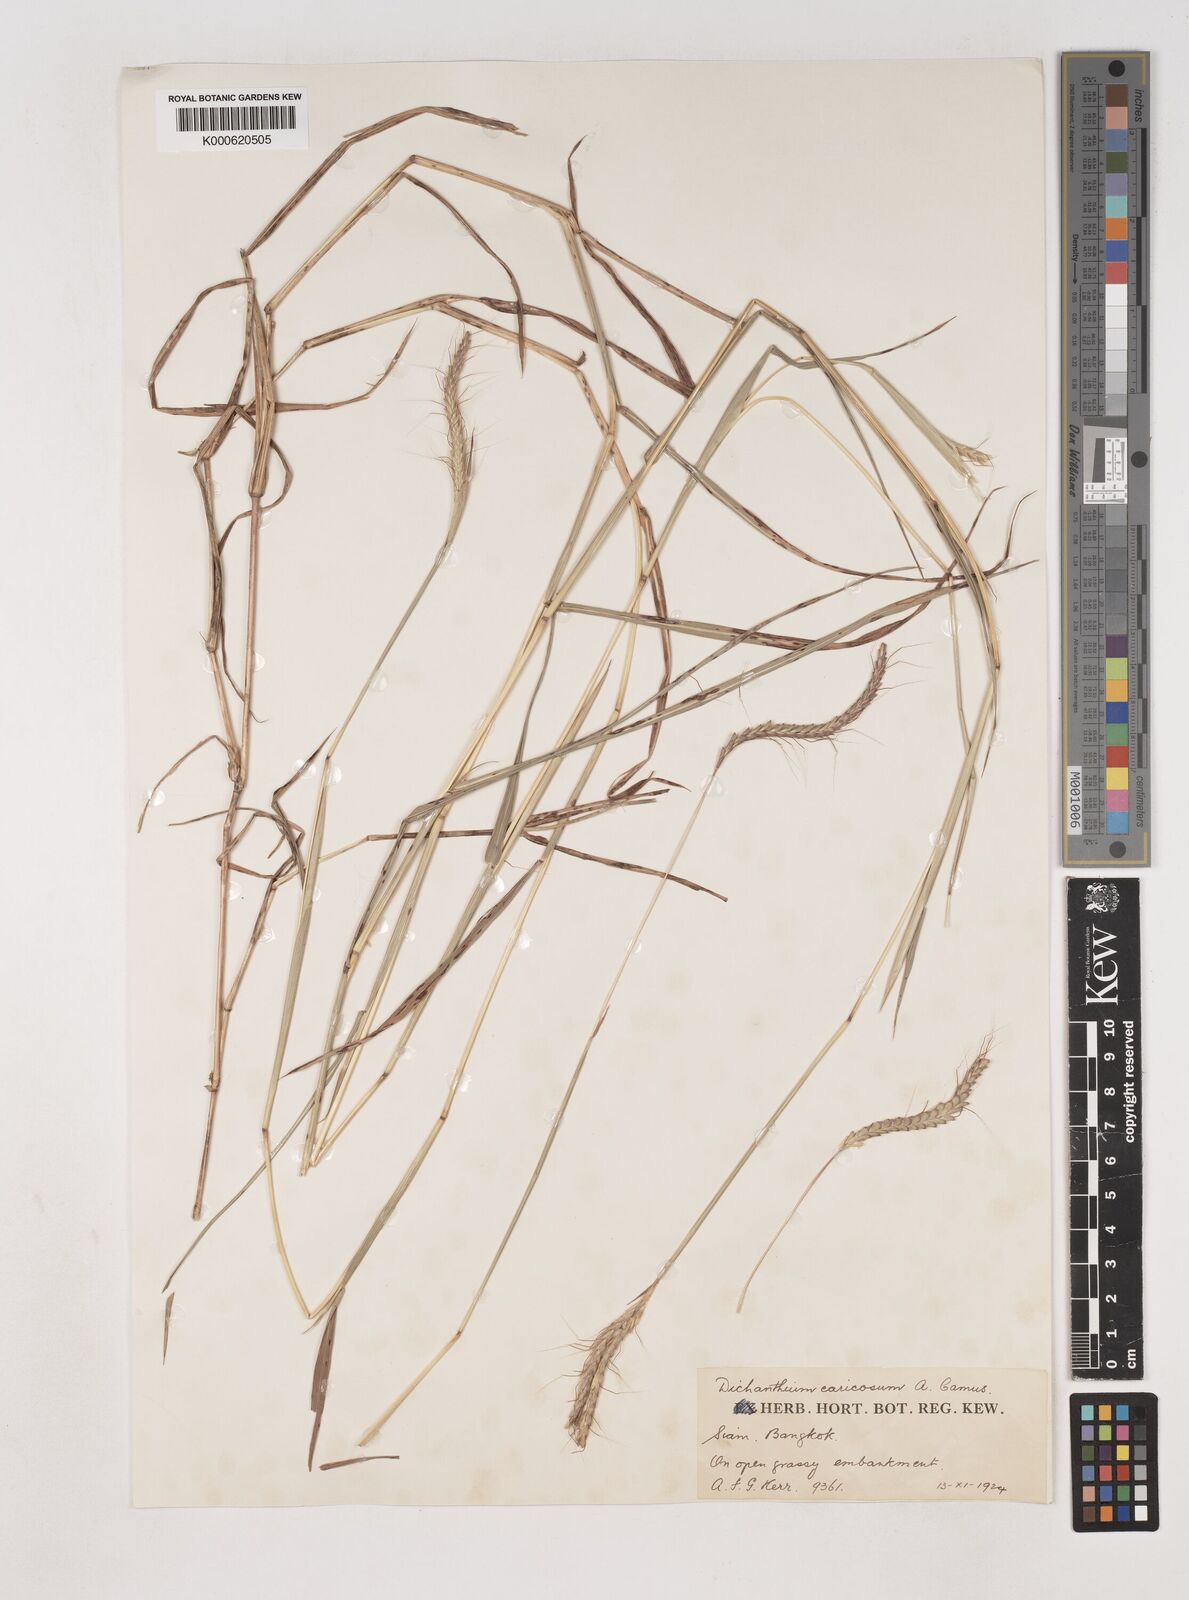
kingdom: Plantae
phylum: Tracheophyta
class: Liliopsida
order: Poales
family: Poaceae
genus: Dichanthium
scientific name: Dichanthium caricosum
